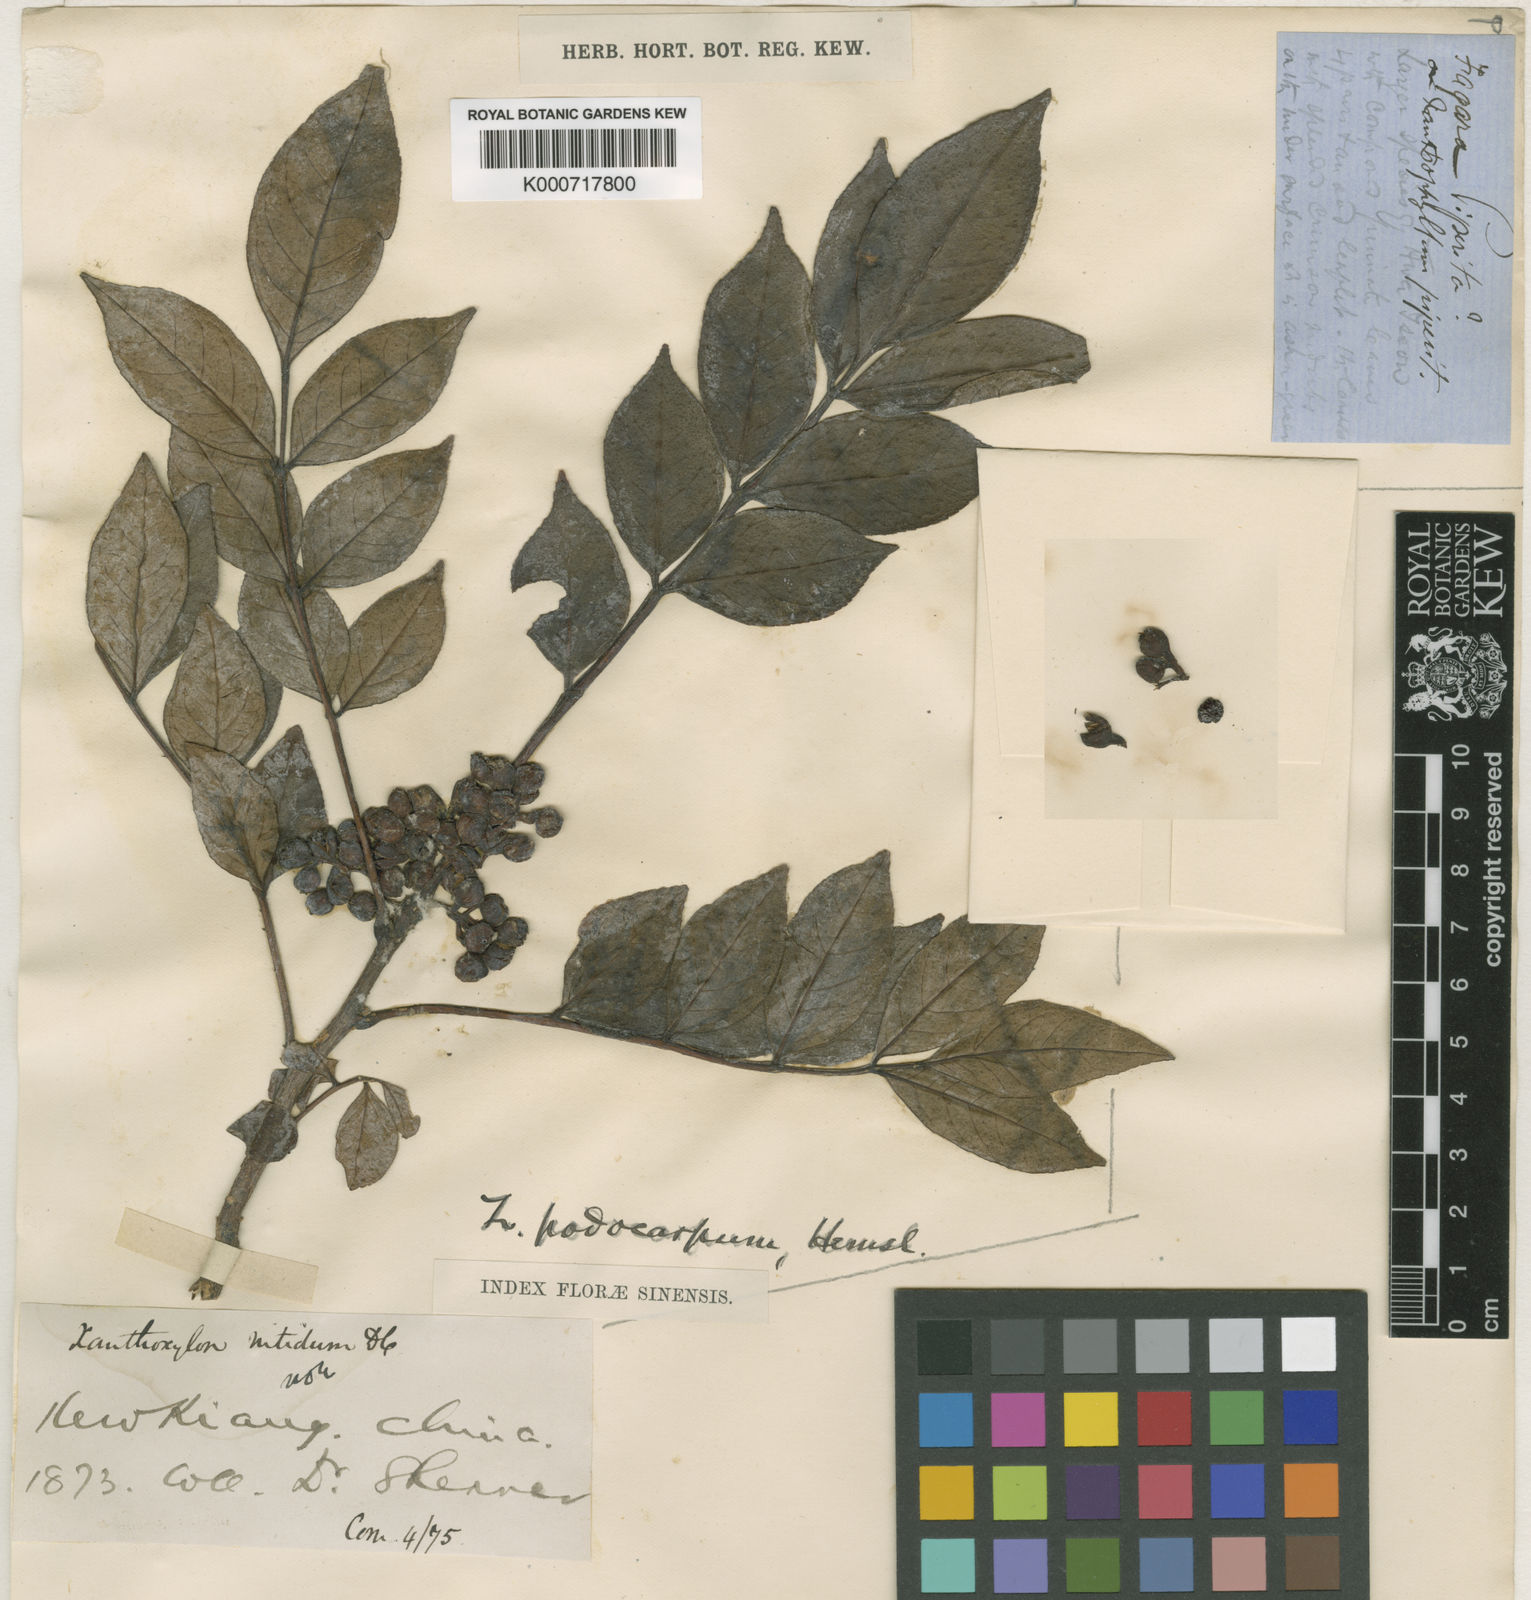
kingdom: Plantae
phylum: Tracheophyta
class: Magnoliopsida
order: Sapindales
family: Rutaceae
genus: Zanthoxylum
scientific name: Zanthoxylum simulans
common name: Chinese-pepper
